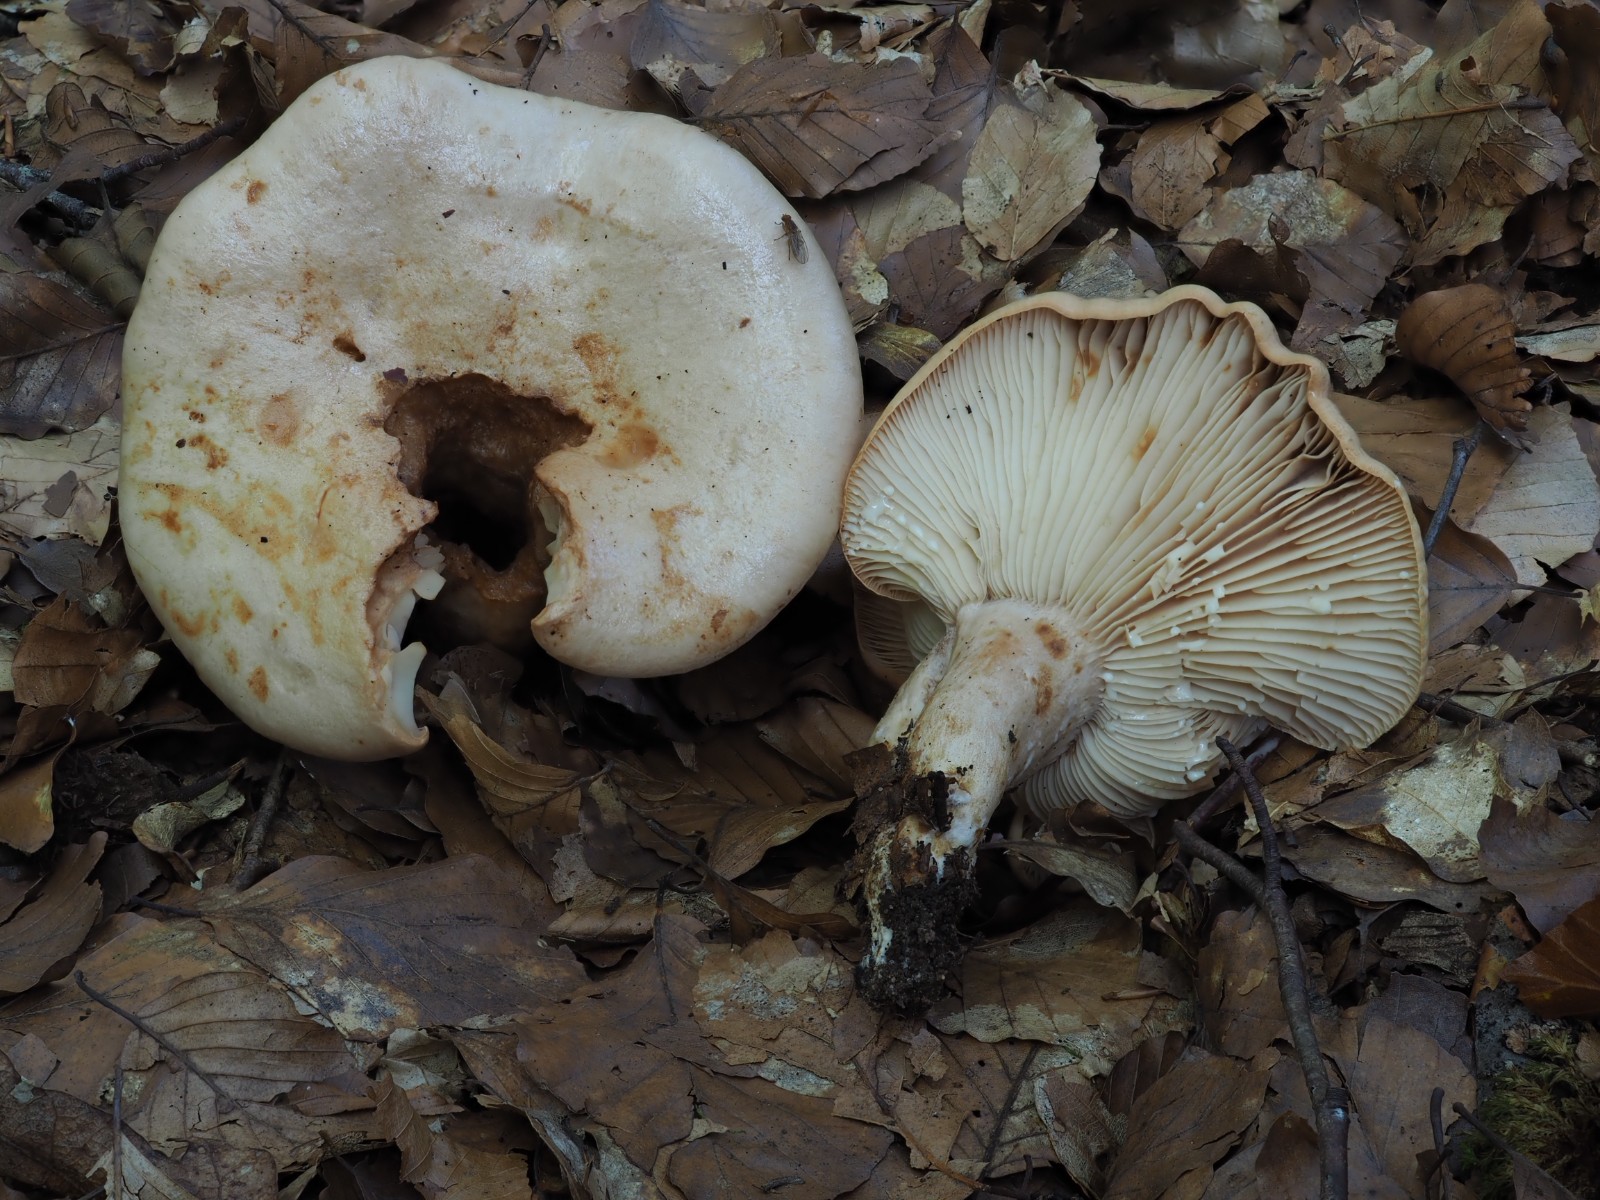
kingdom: Fungi
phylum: Basidiomycota
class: Agaricomycetes
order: Russulales
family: Russulaceae
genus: Lactarius
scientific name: Lactarius pallidus
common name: bleg mælkehat
